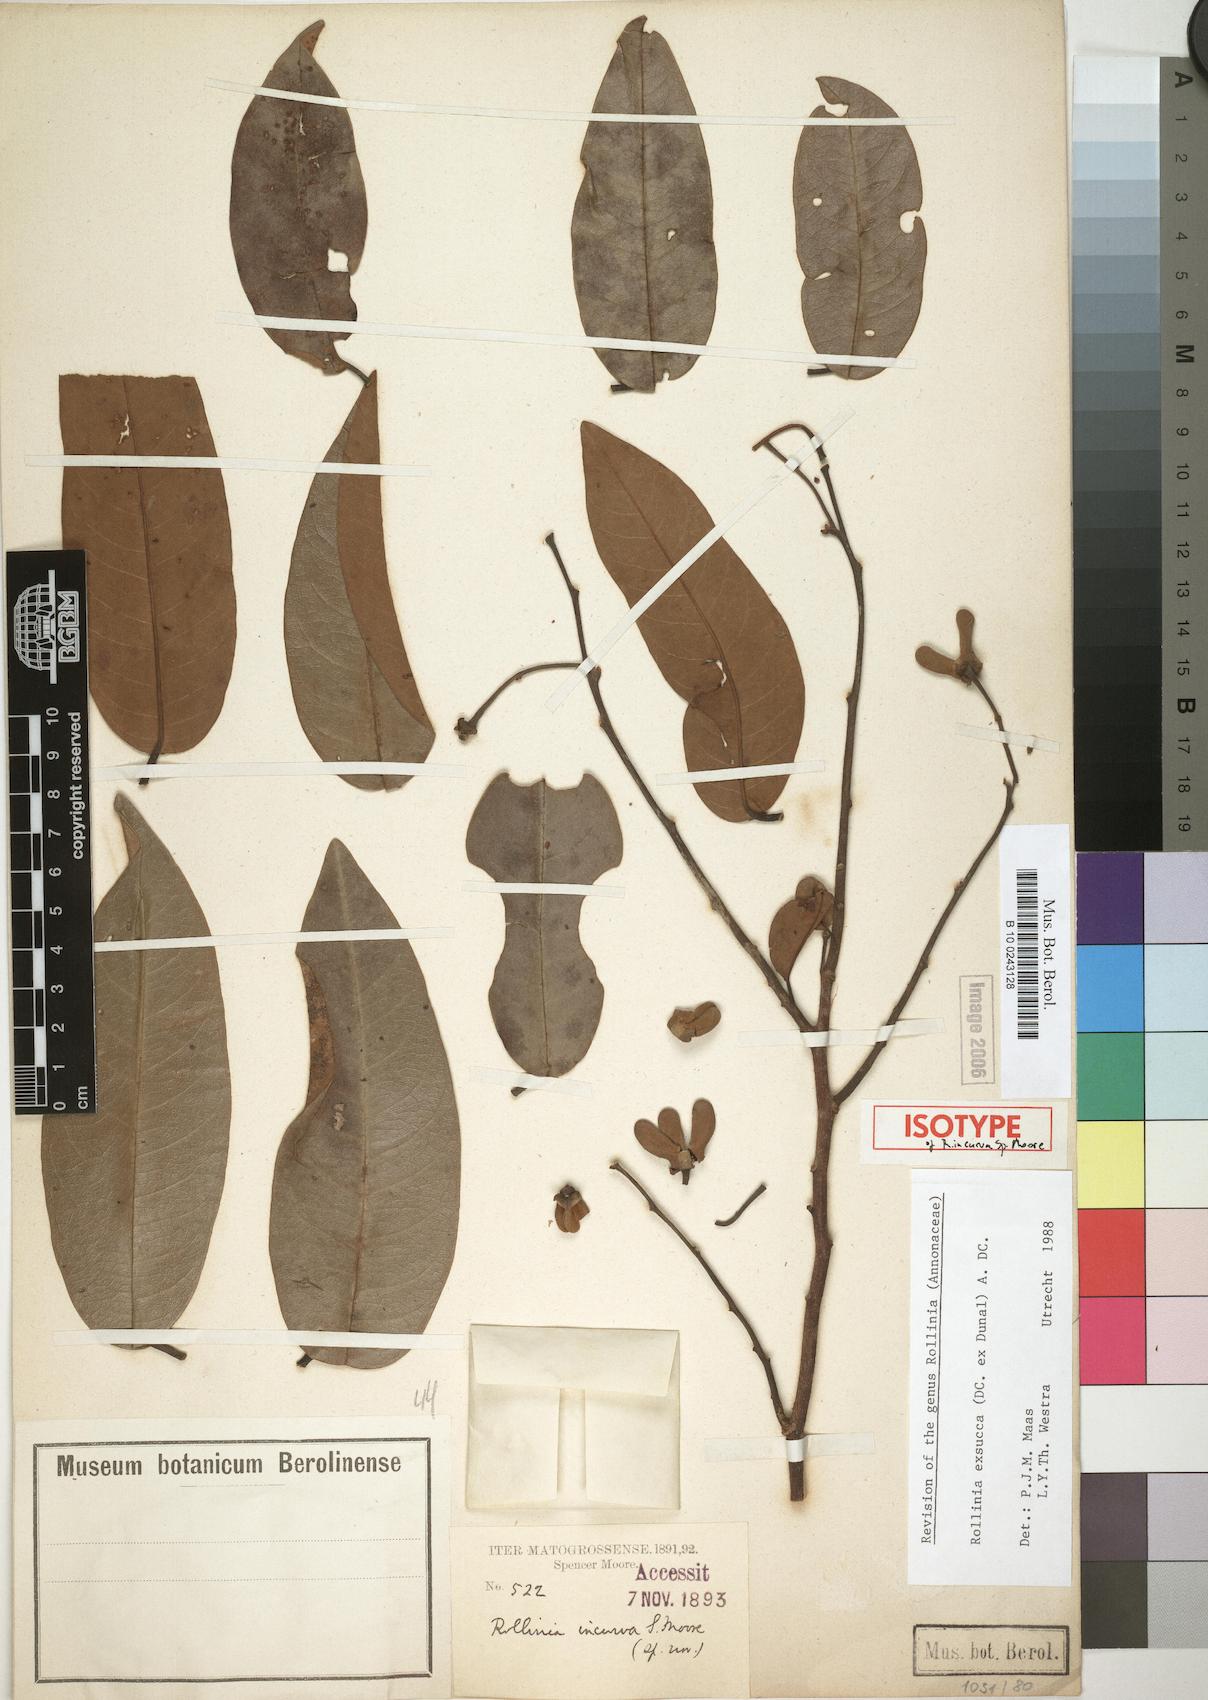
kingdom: Plantae
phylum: Tracheophyta
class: Magnoliopsida
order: Magnoliales
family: Annonaceae
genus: Annona
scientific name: Annona exsucca
